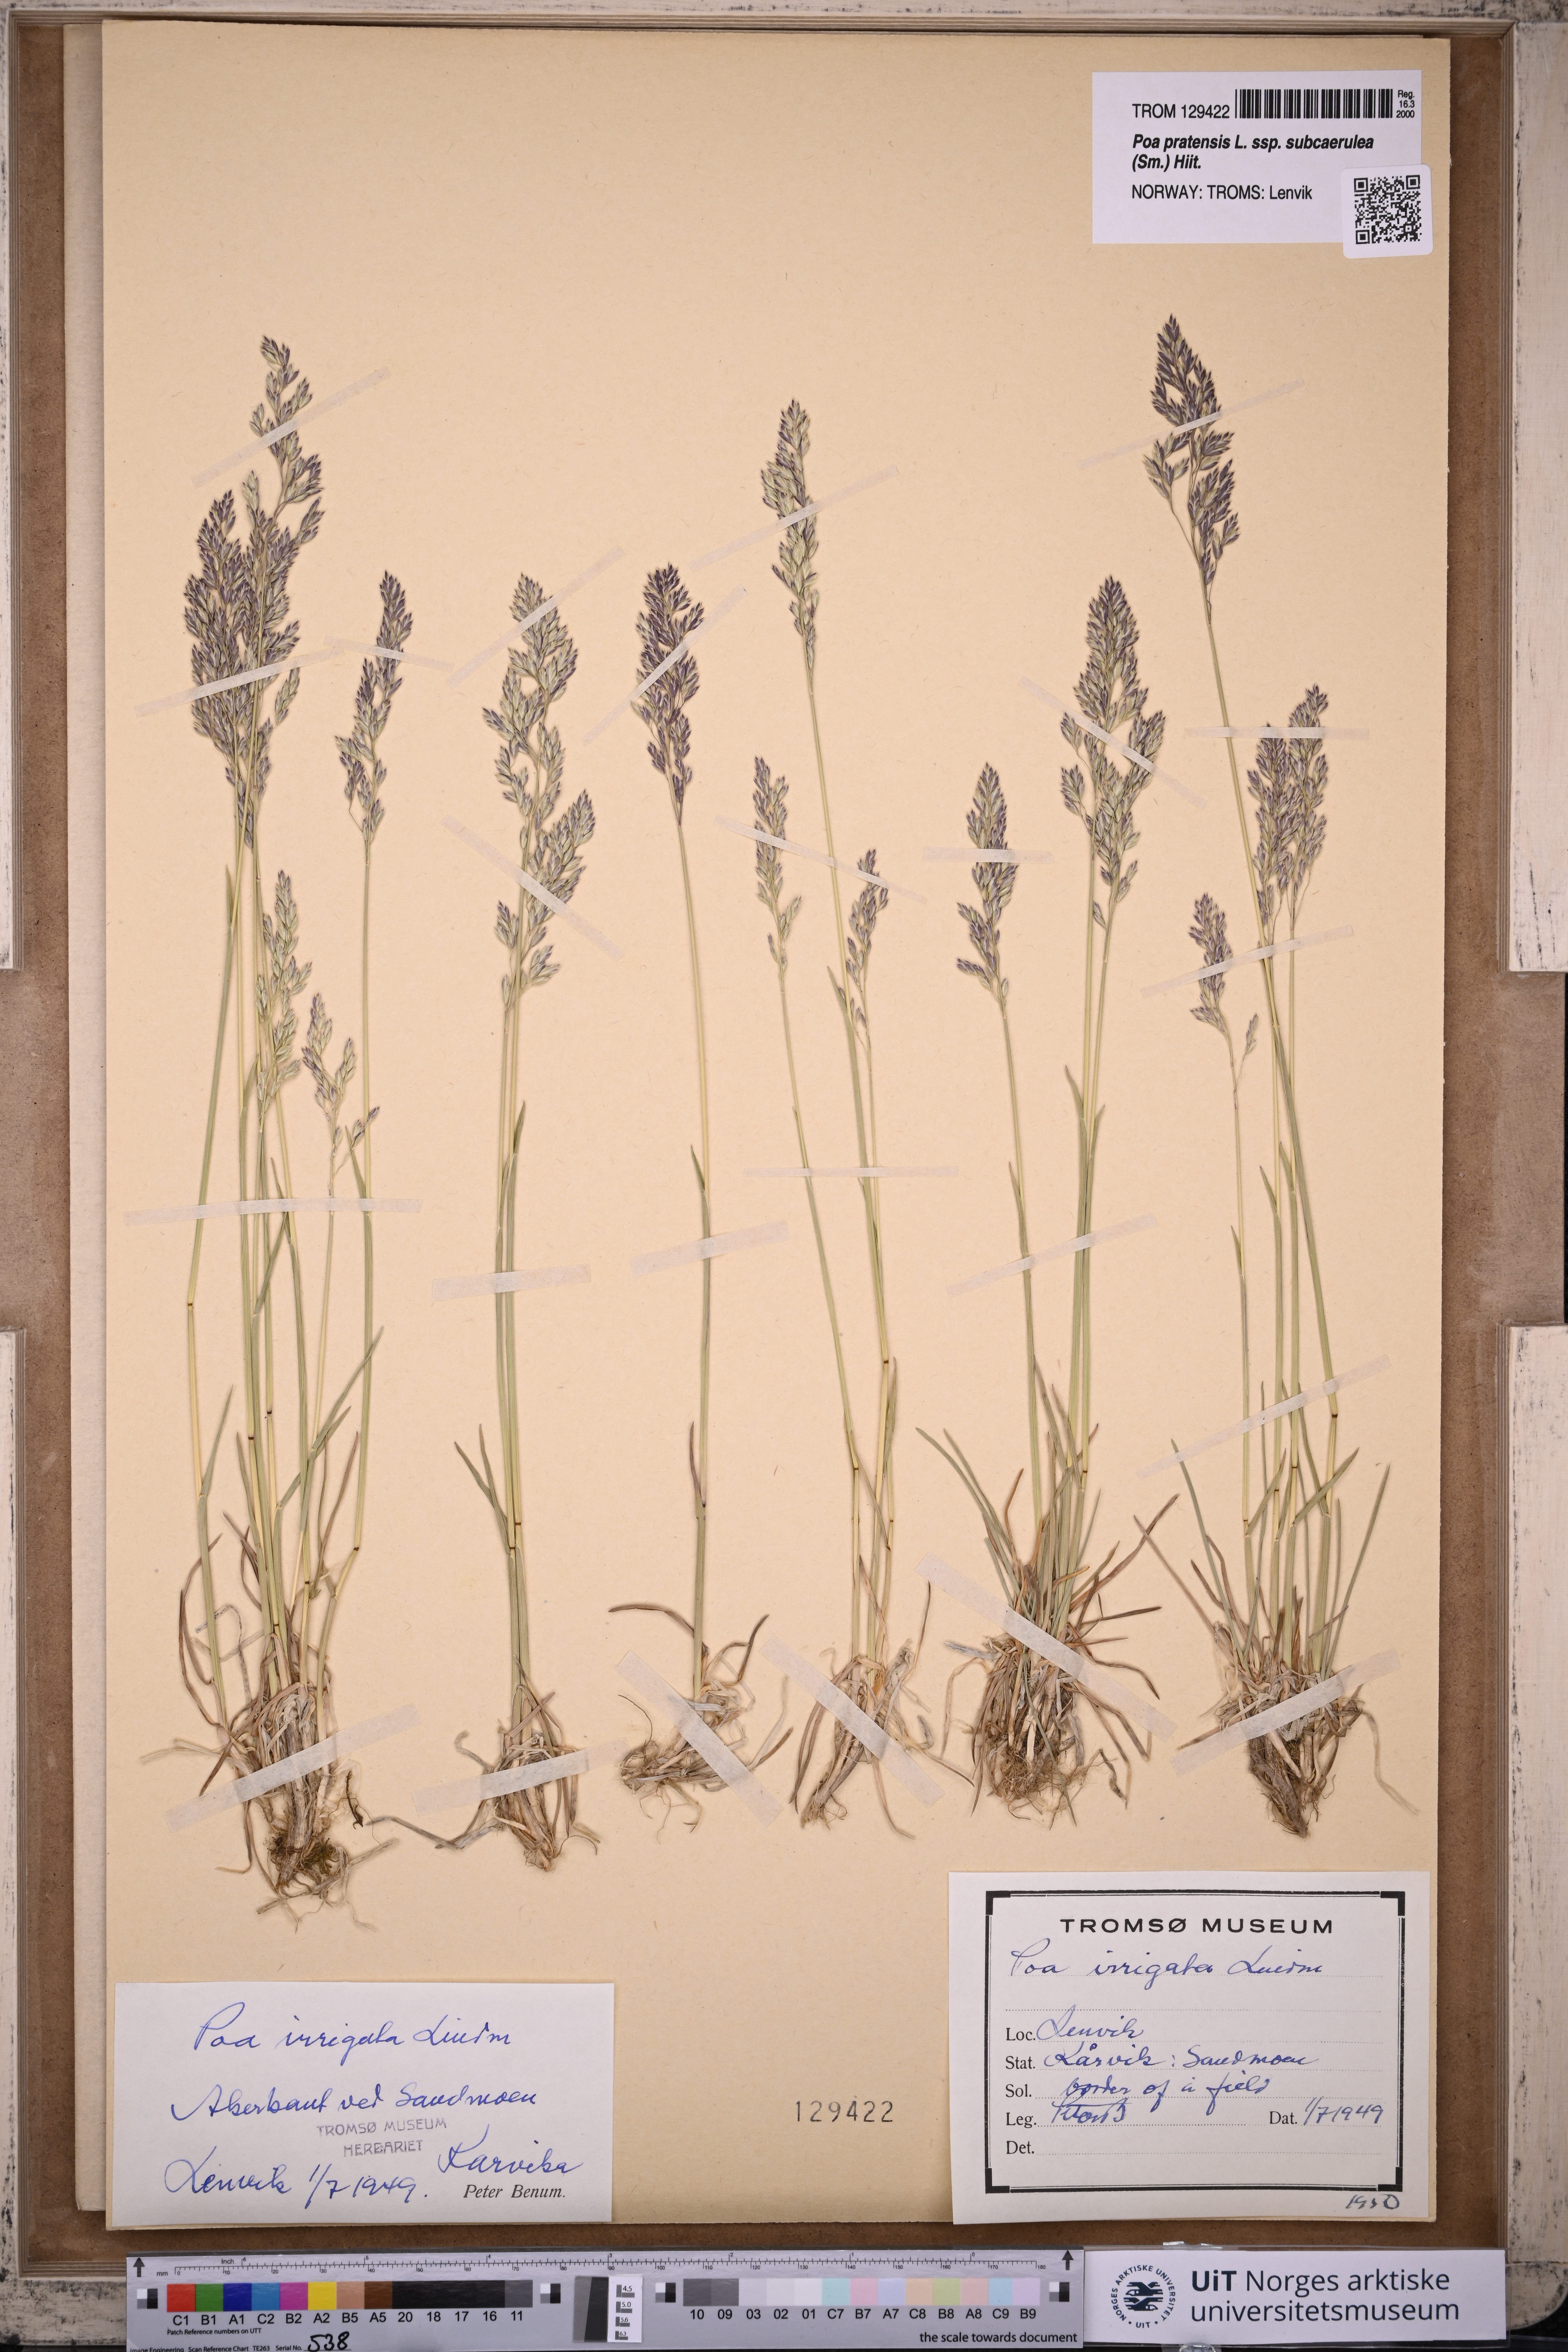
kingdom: Plantae
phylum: Tracheophyta
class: Liliopsida
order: Poales
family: Poaceae
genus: Poa
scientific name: Poa humilis
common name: Spreading meadow-grass
